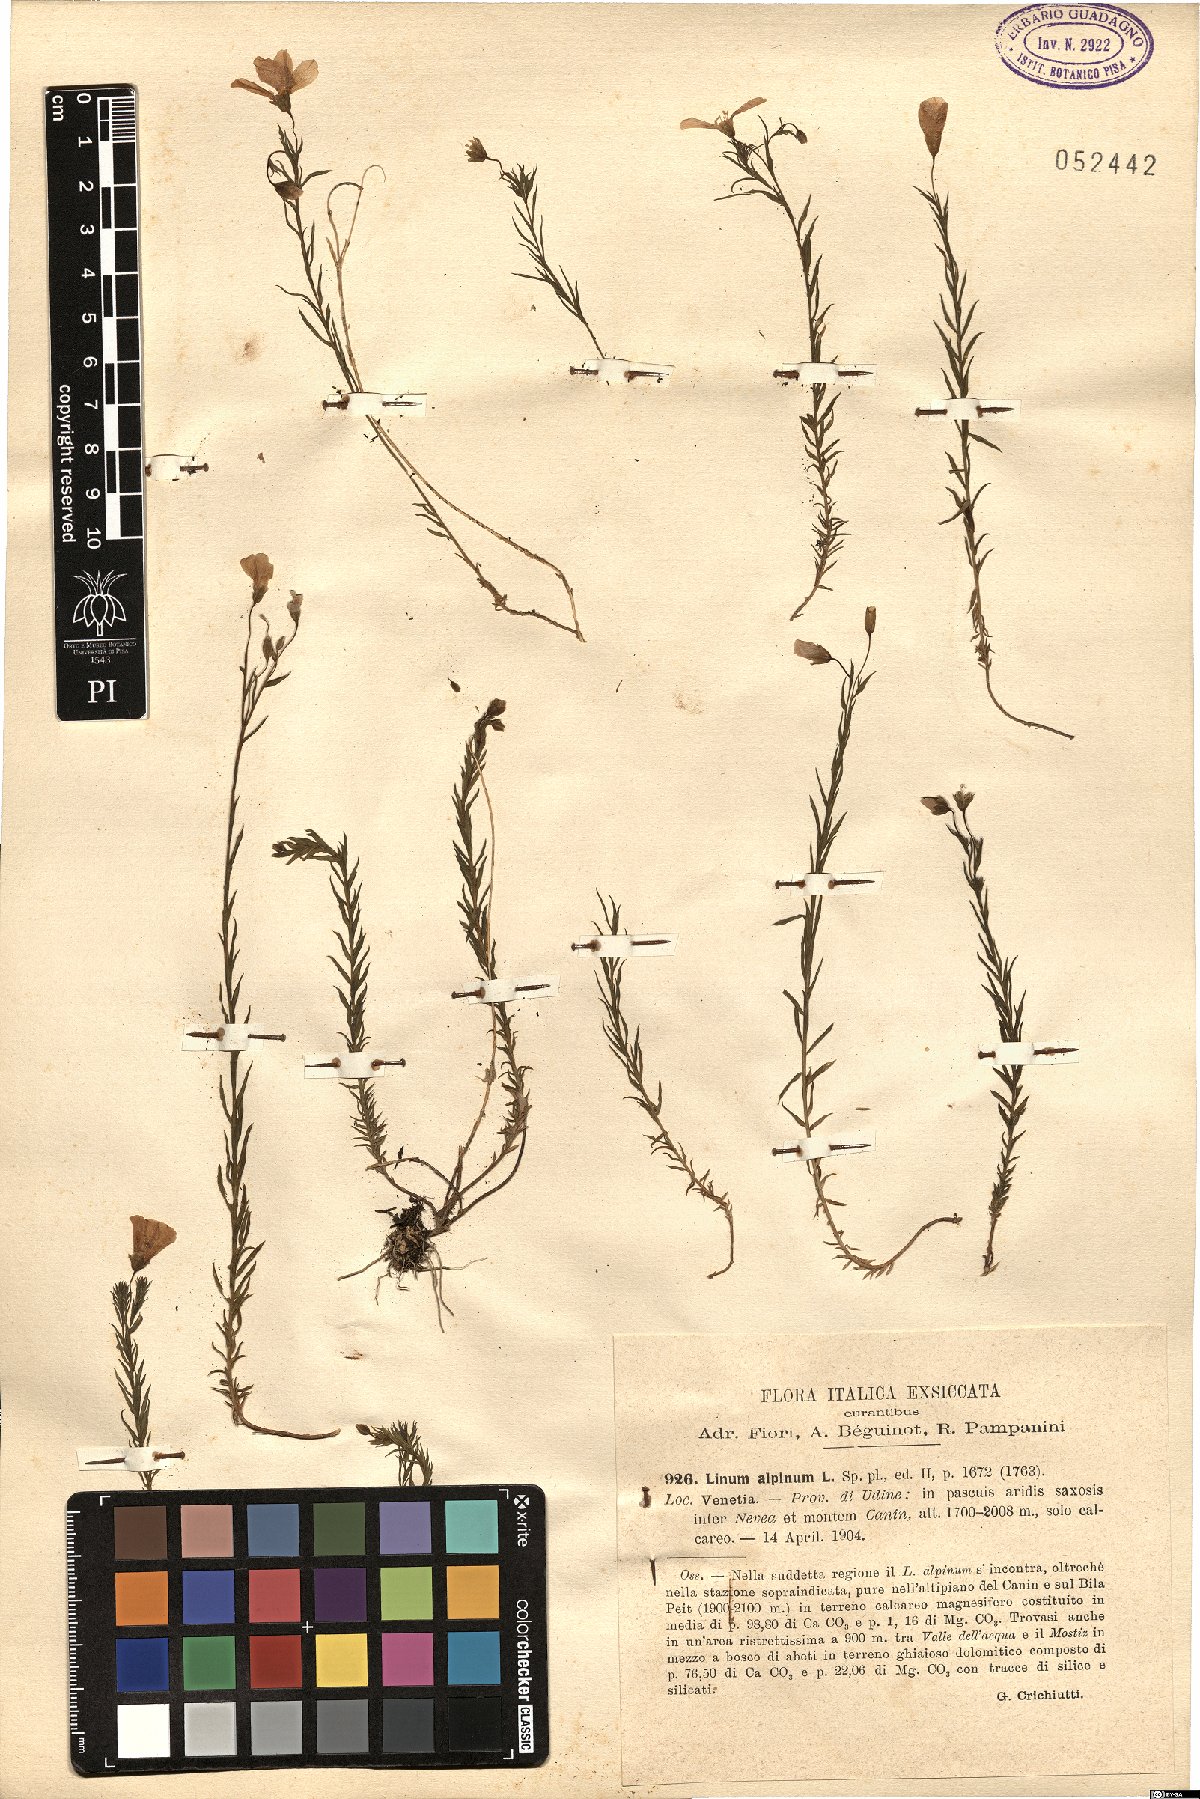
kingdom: Plantae
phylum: Tracheophyta
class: Magnoliopsida
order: Malpighiales
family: Linaceae
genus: Linum
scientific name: Linum alpinum
